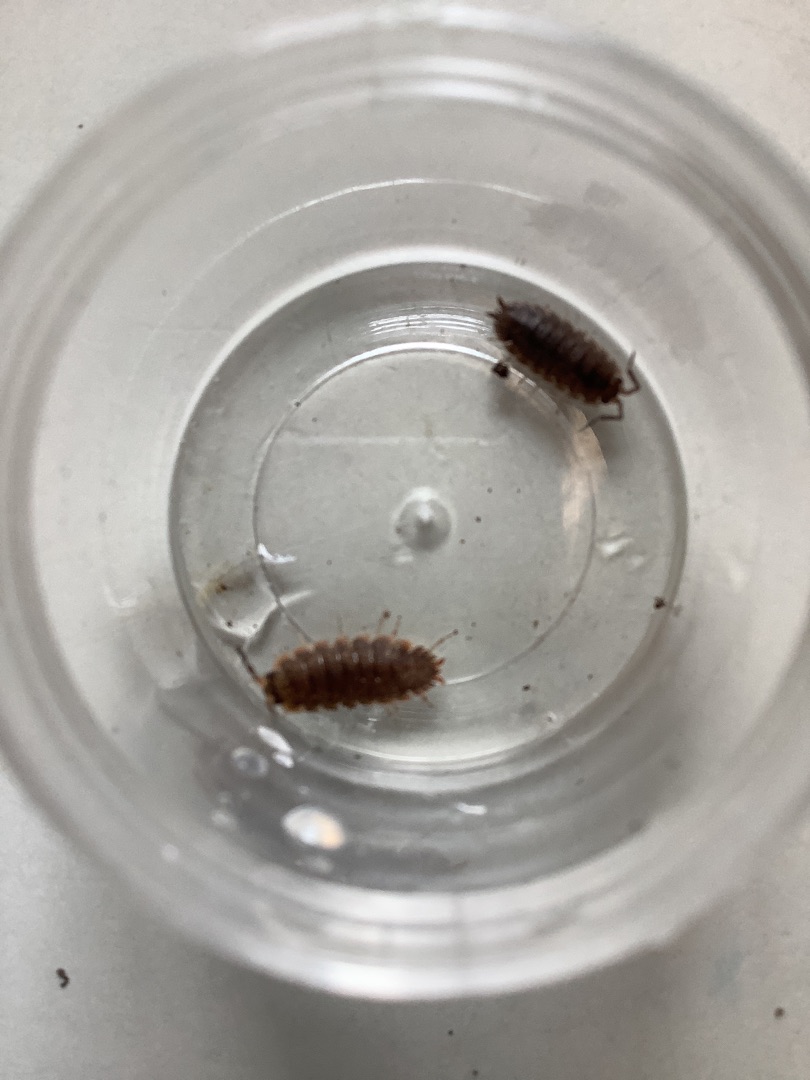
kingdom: Animalia
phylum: Arthropoda
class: Malacostraca
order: Isopoda
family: Porcellionidae
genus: Porcellio
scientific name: Porcellio scaber
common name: Grå bænkebider
